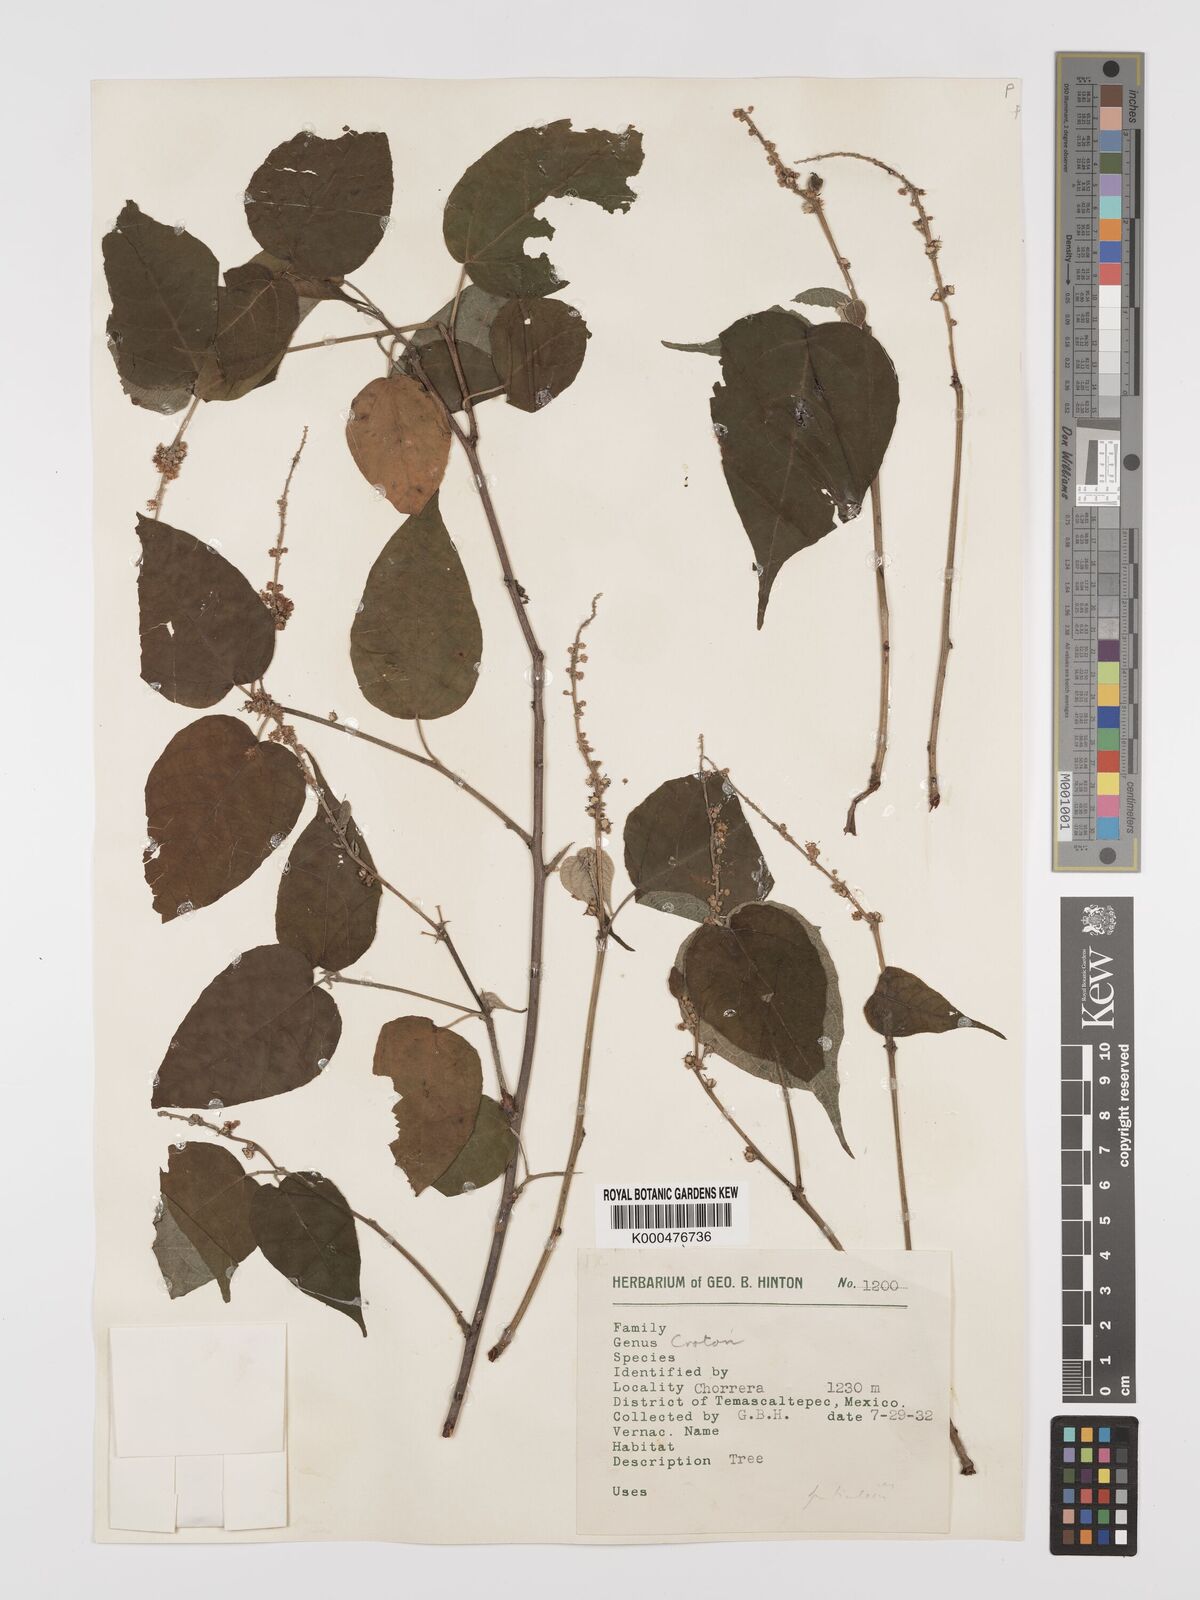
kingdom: Plantae
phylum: Tracheophyta
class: Magnoliopsida
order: Malpighiales
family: Euphorbiaceae
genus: Croton
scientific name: Croton
